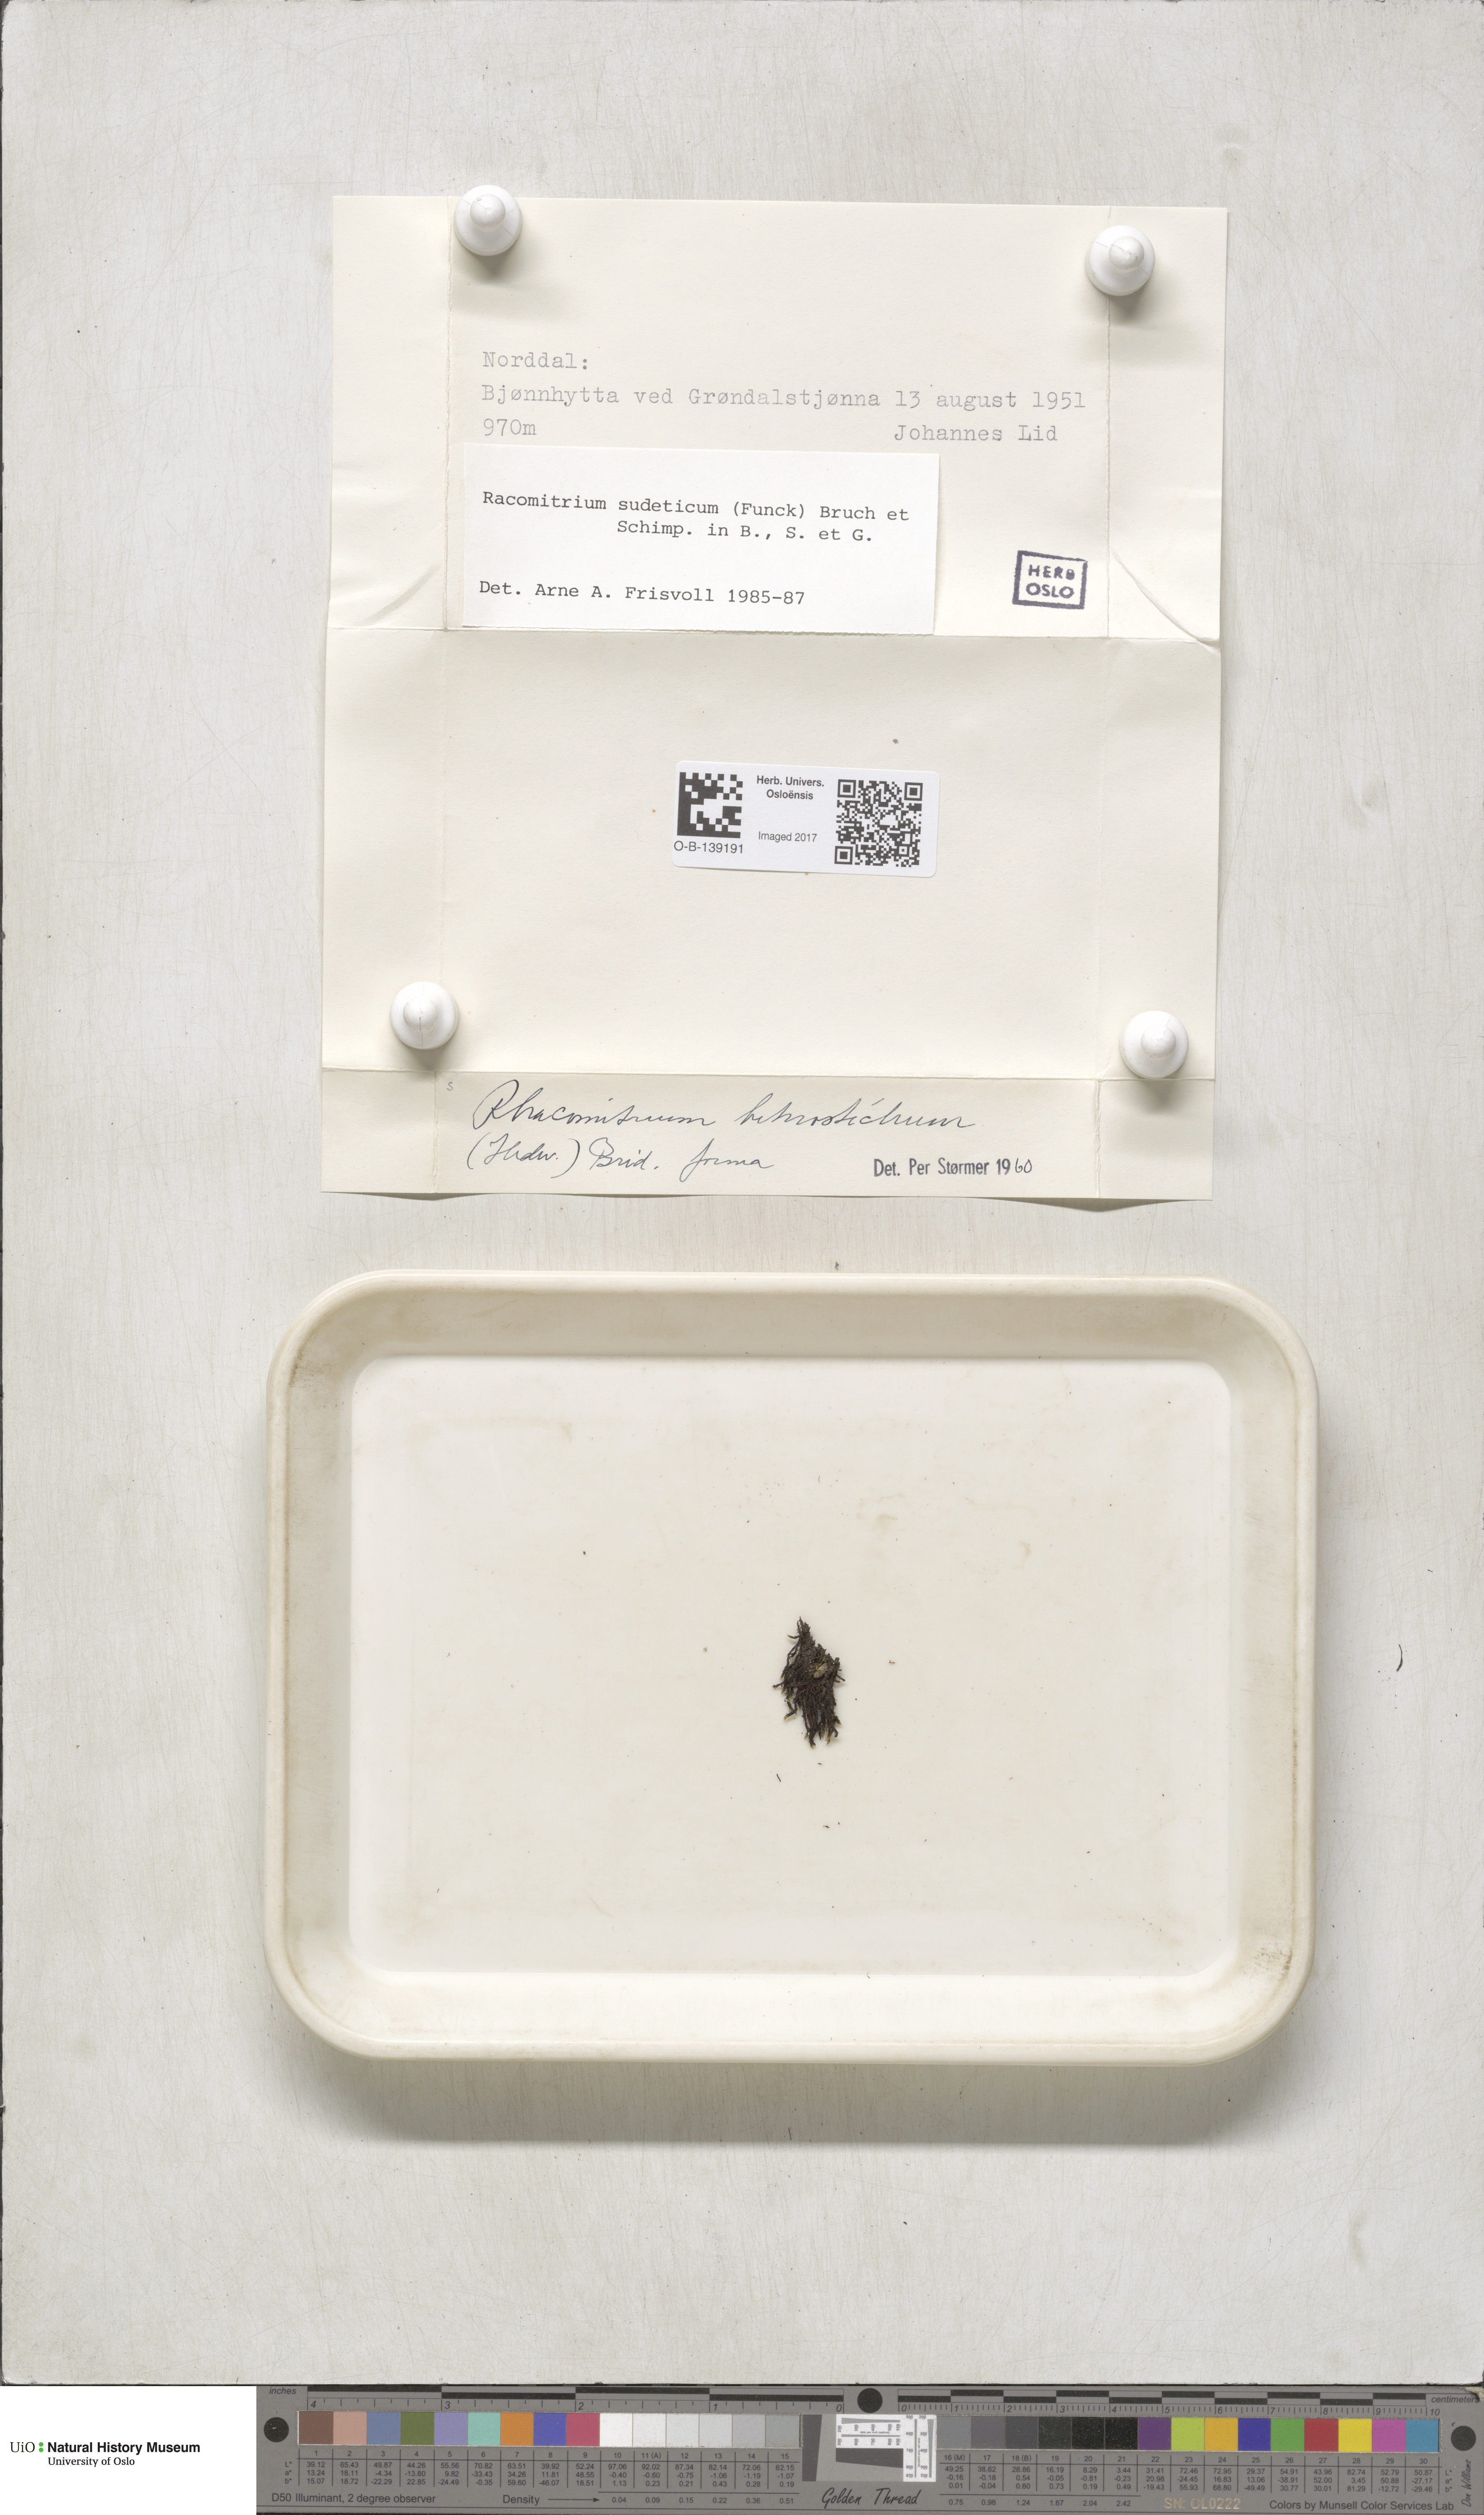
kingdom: Plantae
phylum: Bryophyta
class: Bryopsida
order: Grimmiales
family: Grimmiaceae
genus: Bucklandiella
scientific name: Bucklandiella sudetica
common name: Slender fringe-moss
